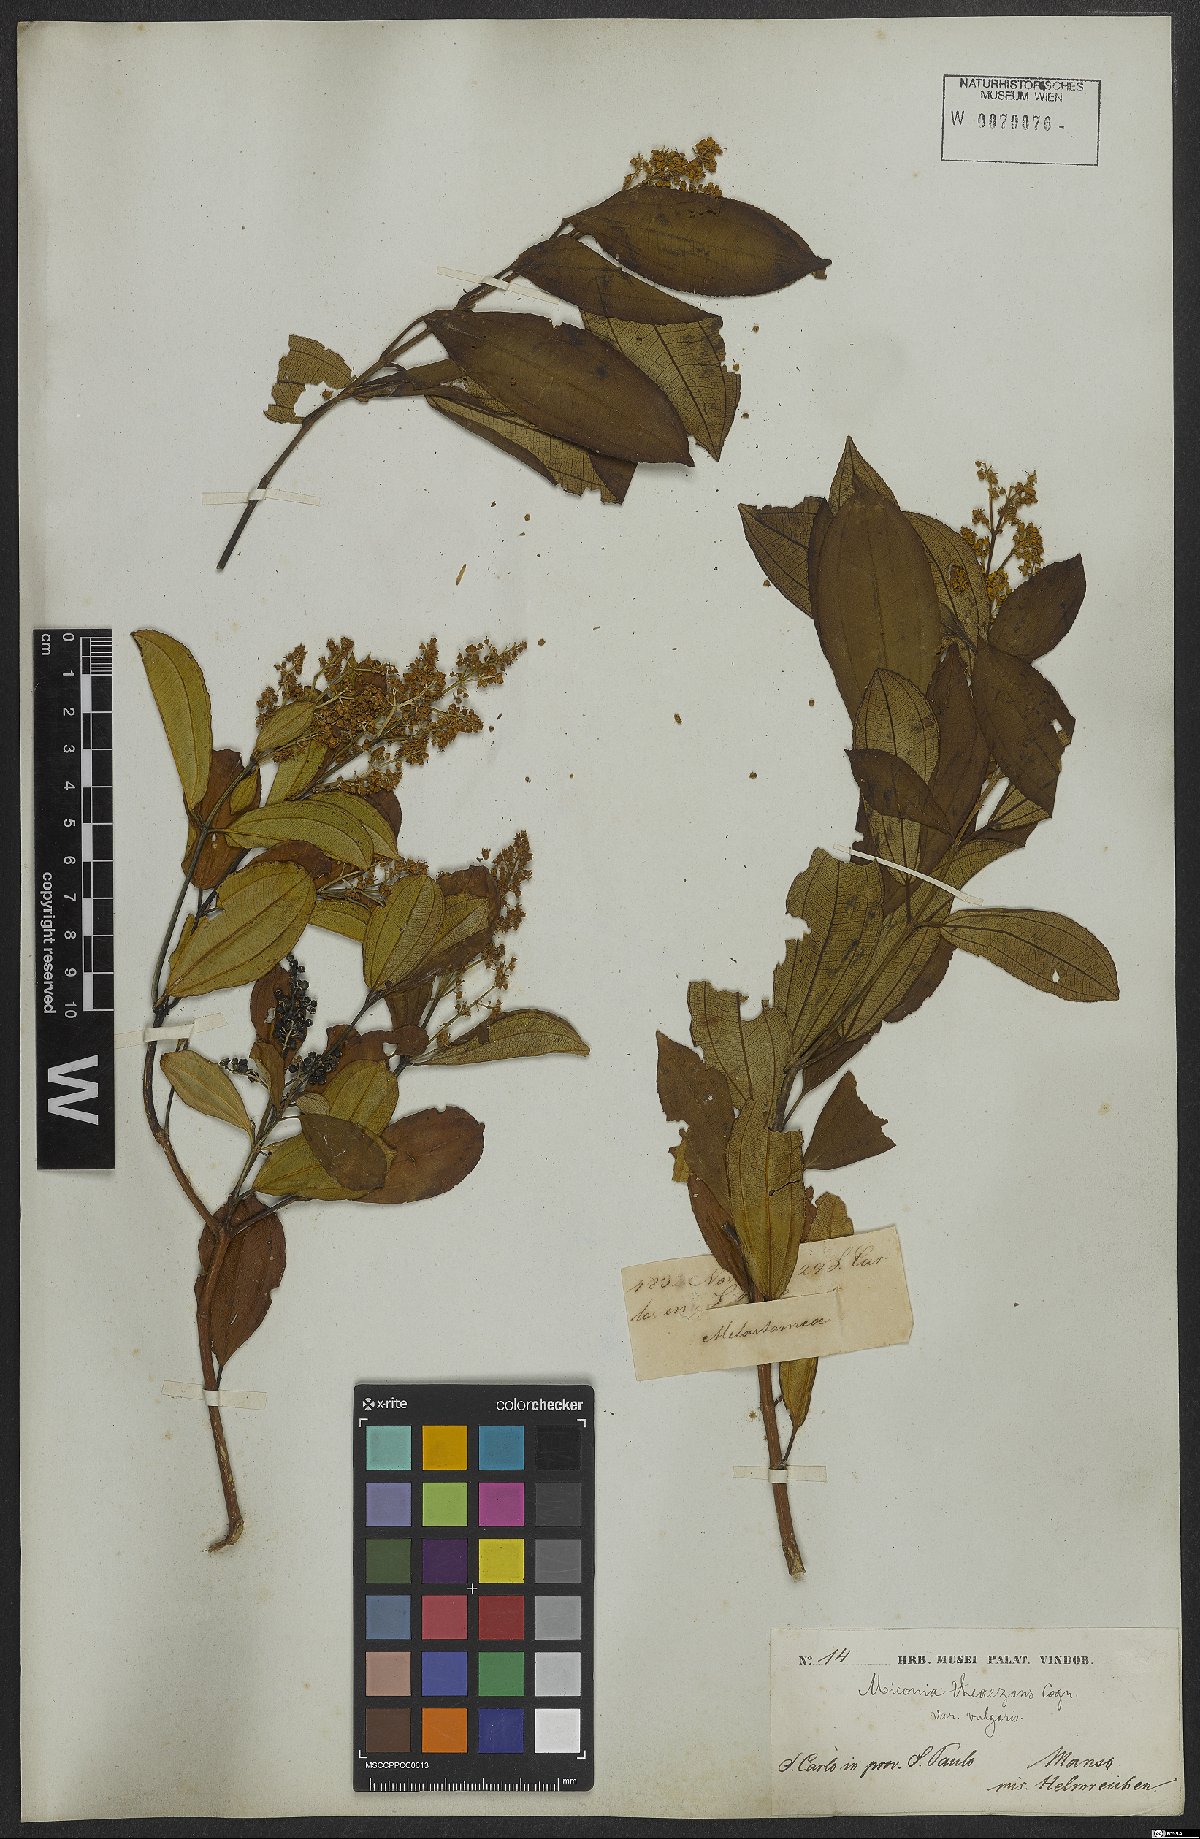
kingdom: Plantae
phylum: Tracheophyta
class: Magnoliopsida
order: Myrtales
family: Melastomataceae
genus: Miconia
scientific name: Miconia theizans
